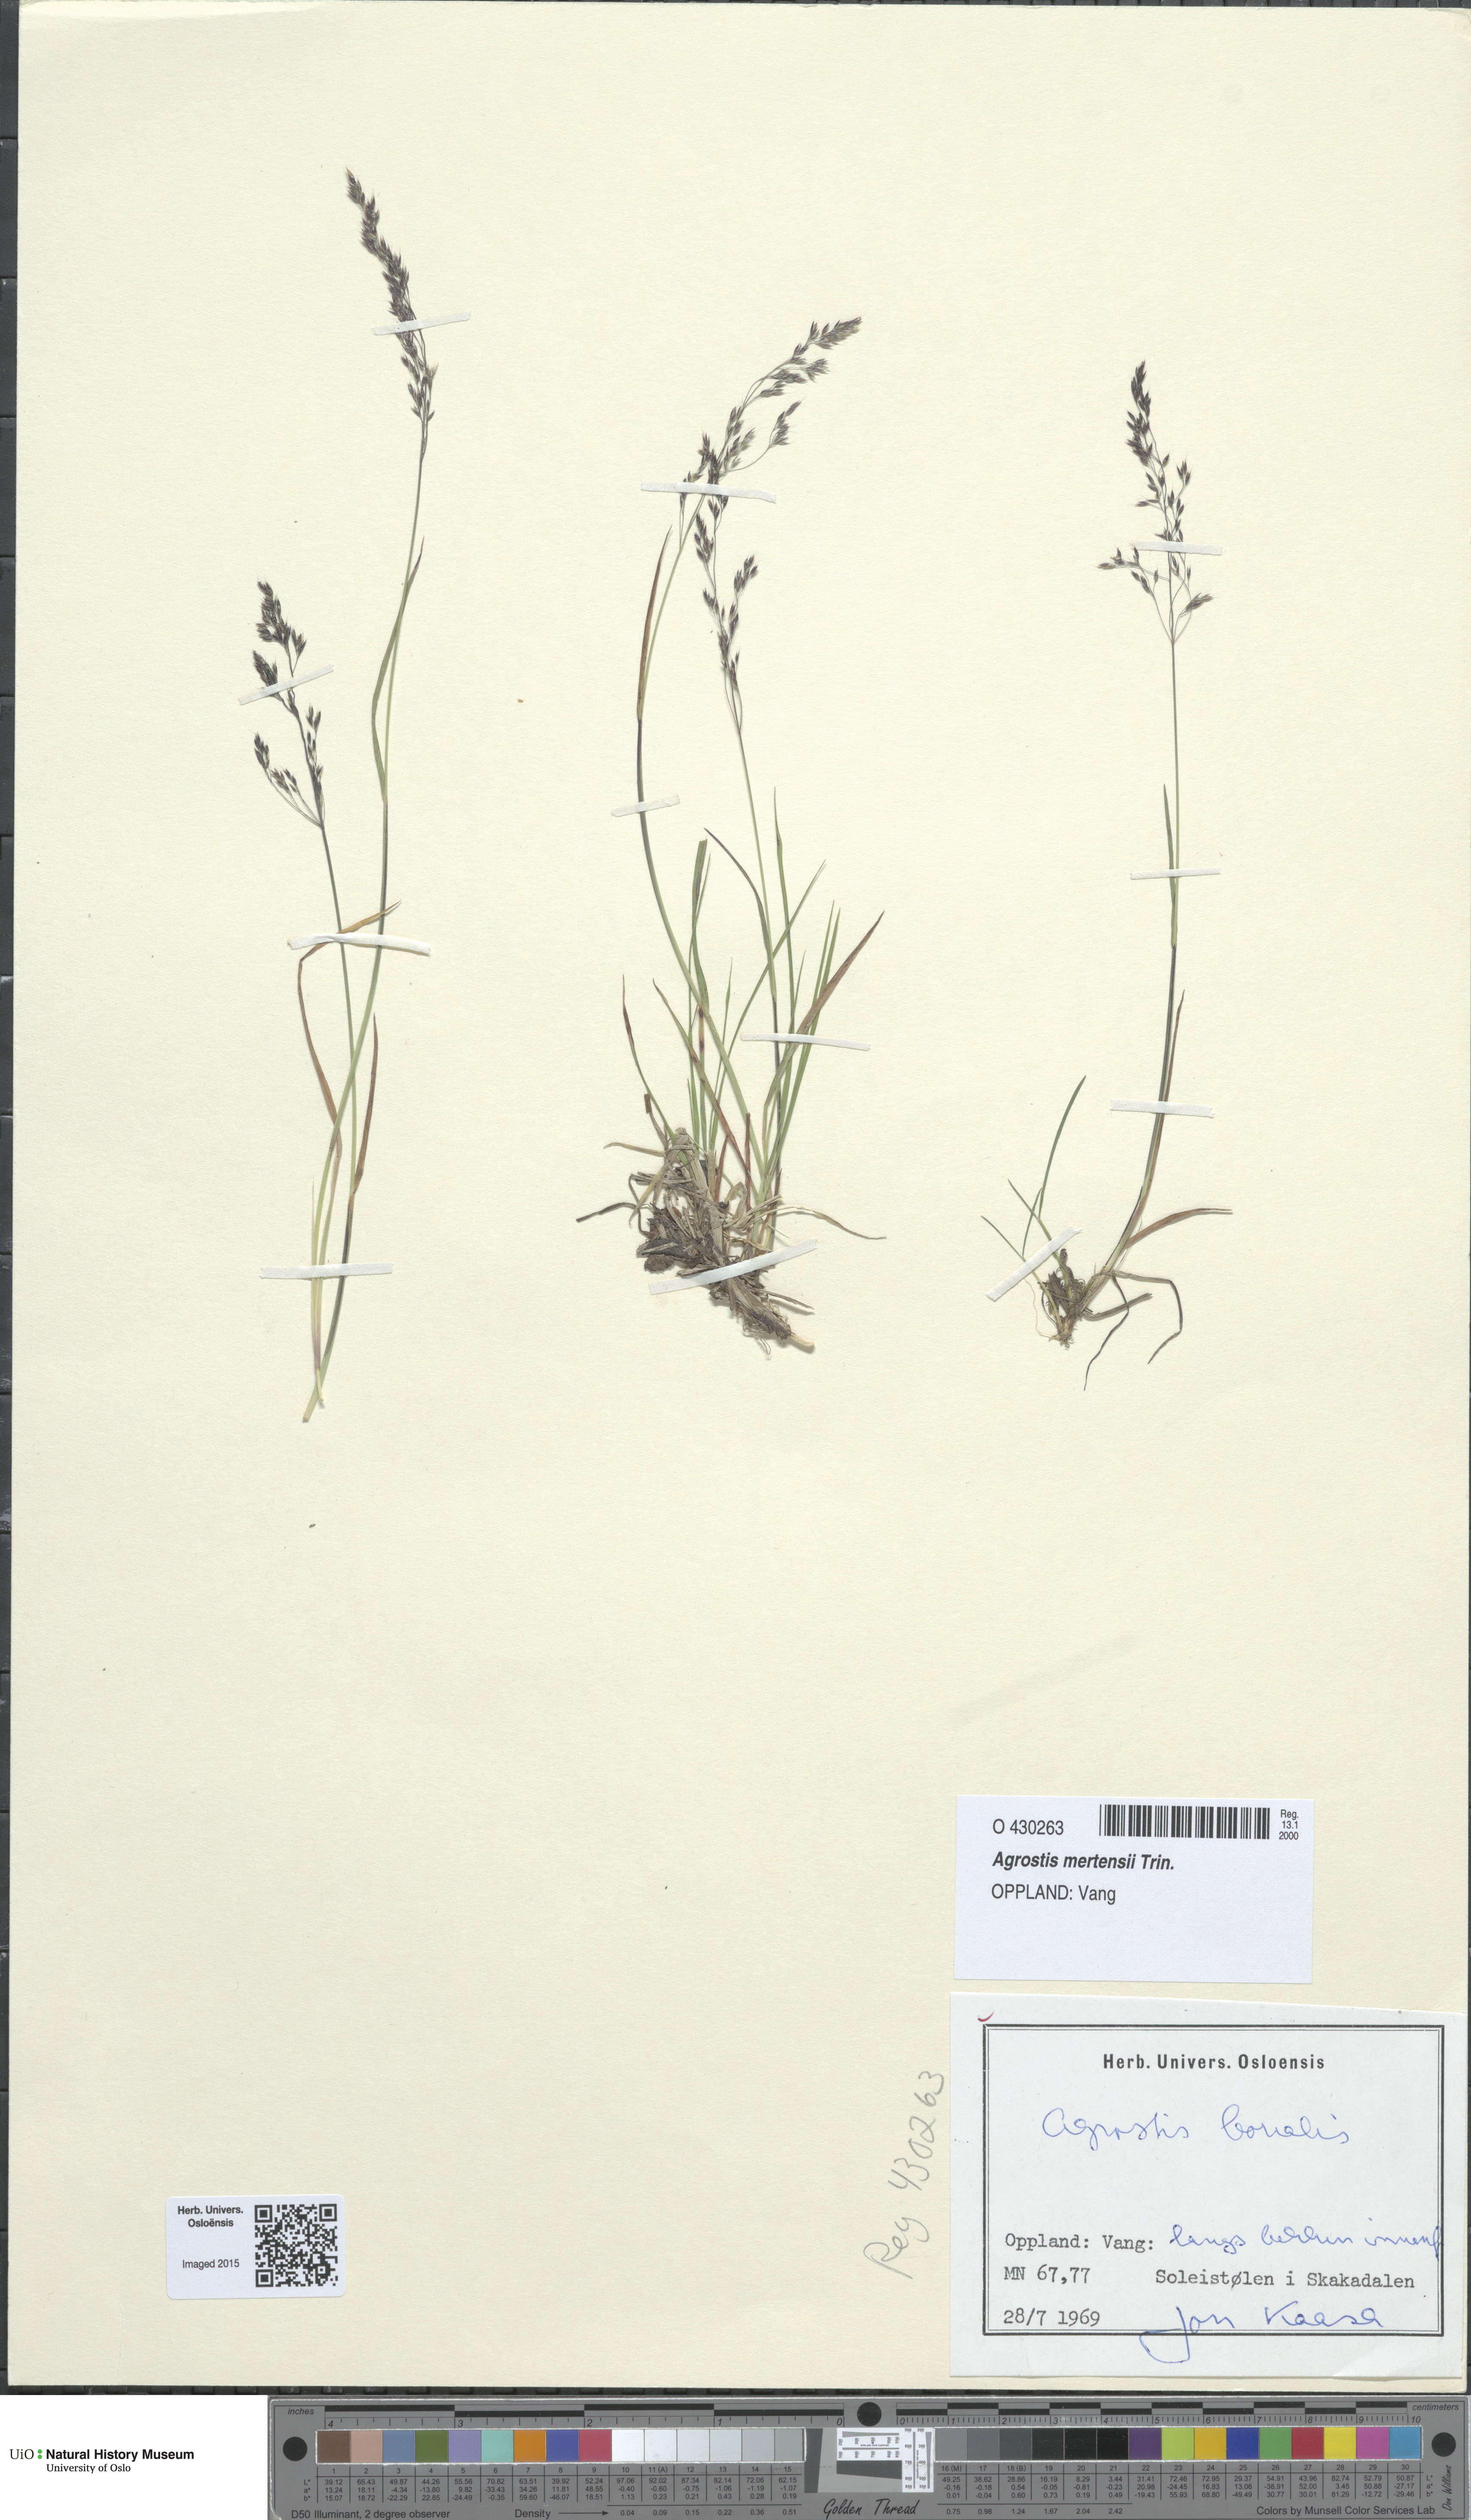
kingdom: Plantae
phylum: Tracheophyta
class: Liliopsida
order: Poales
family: Poaceae
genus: Agrostis
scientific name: Agrostis mertensii
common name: Northern bent
